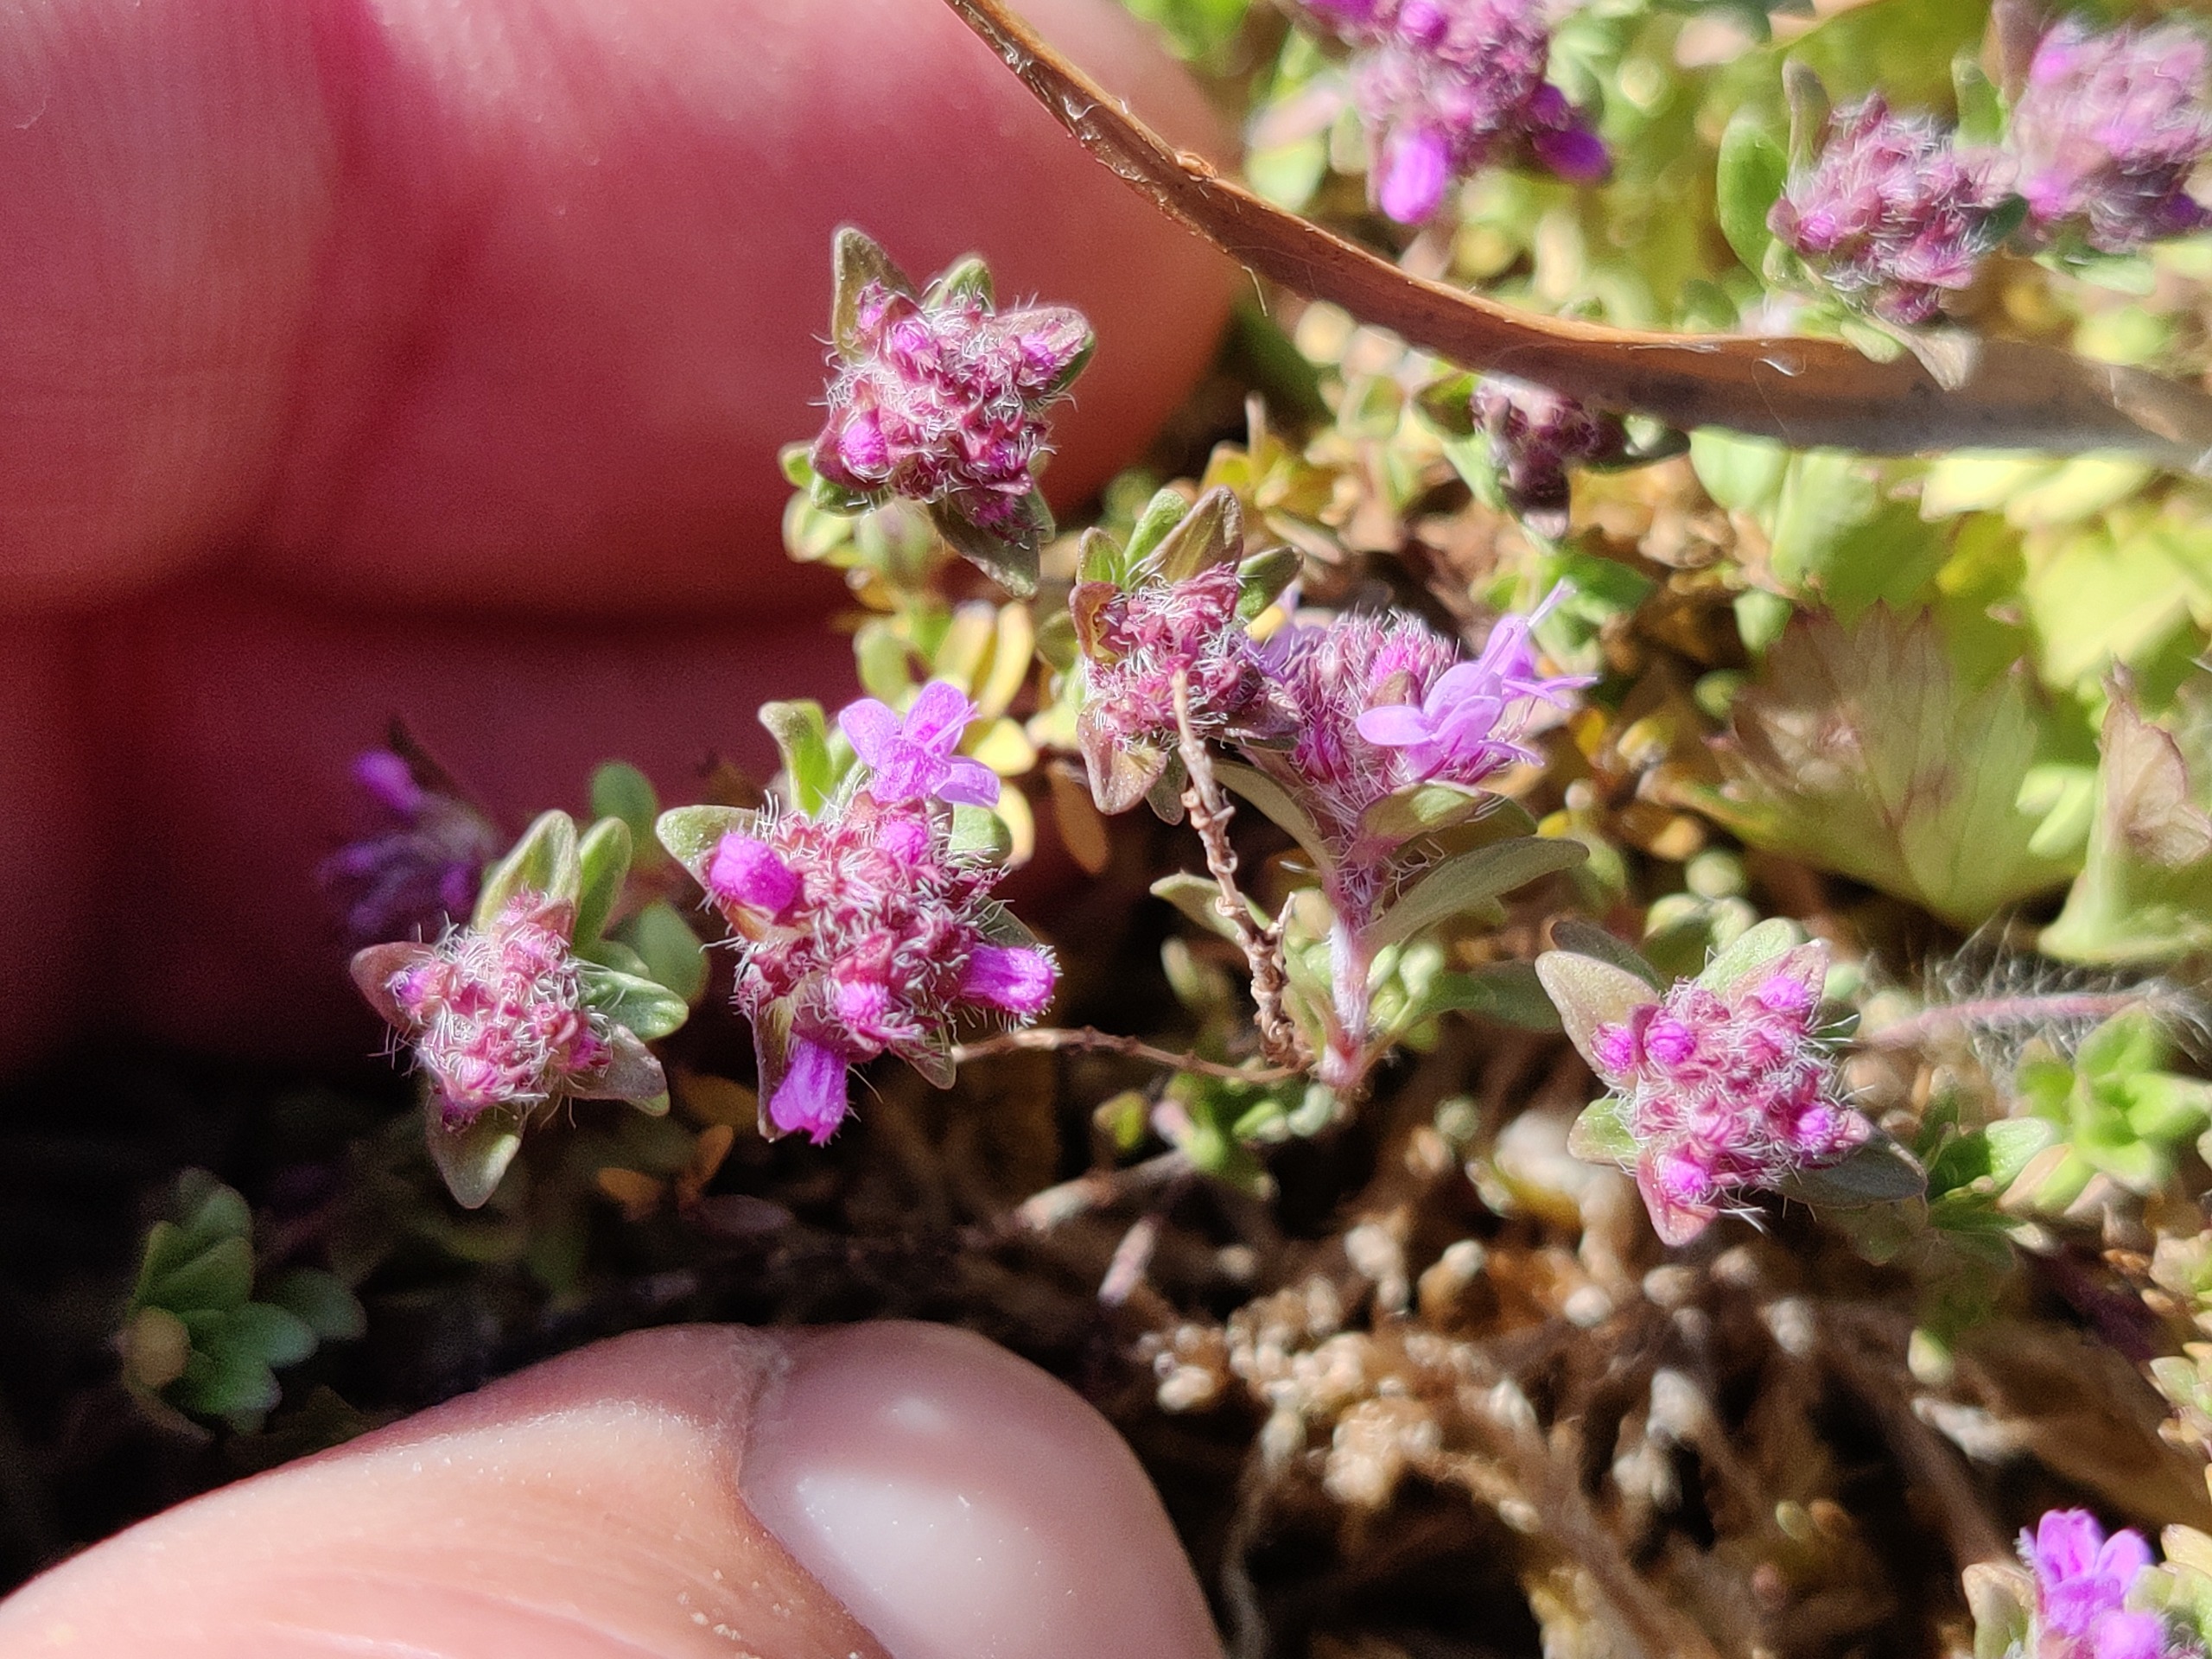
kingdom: Plantae
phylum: Tracheophyta
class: Magnoliopsida
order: Lamiales
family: Lamiaceae
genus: Thymus
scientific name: Thymus serpyllum
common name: Smalbladet timian
